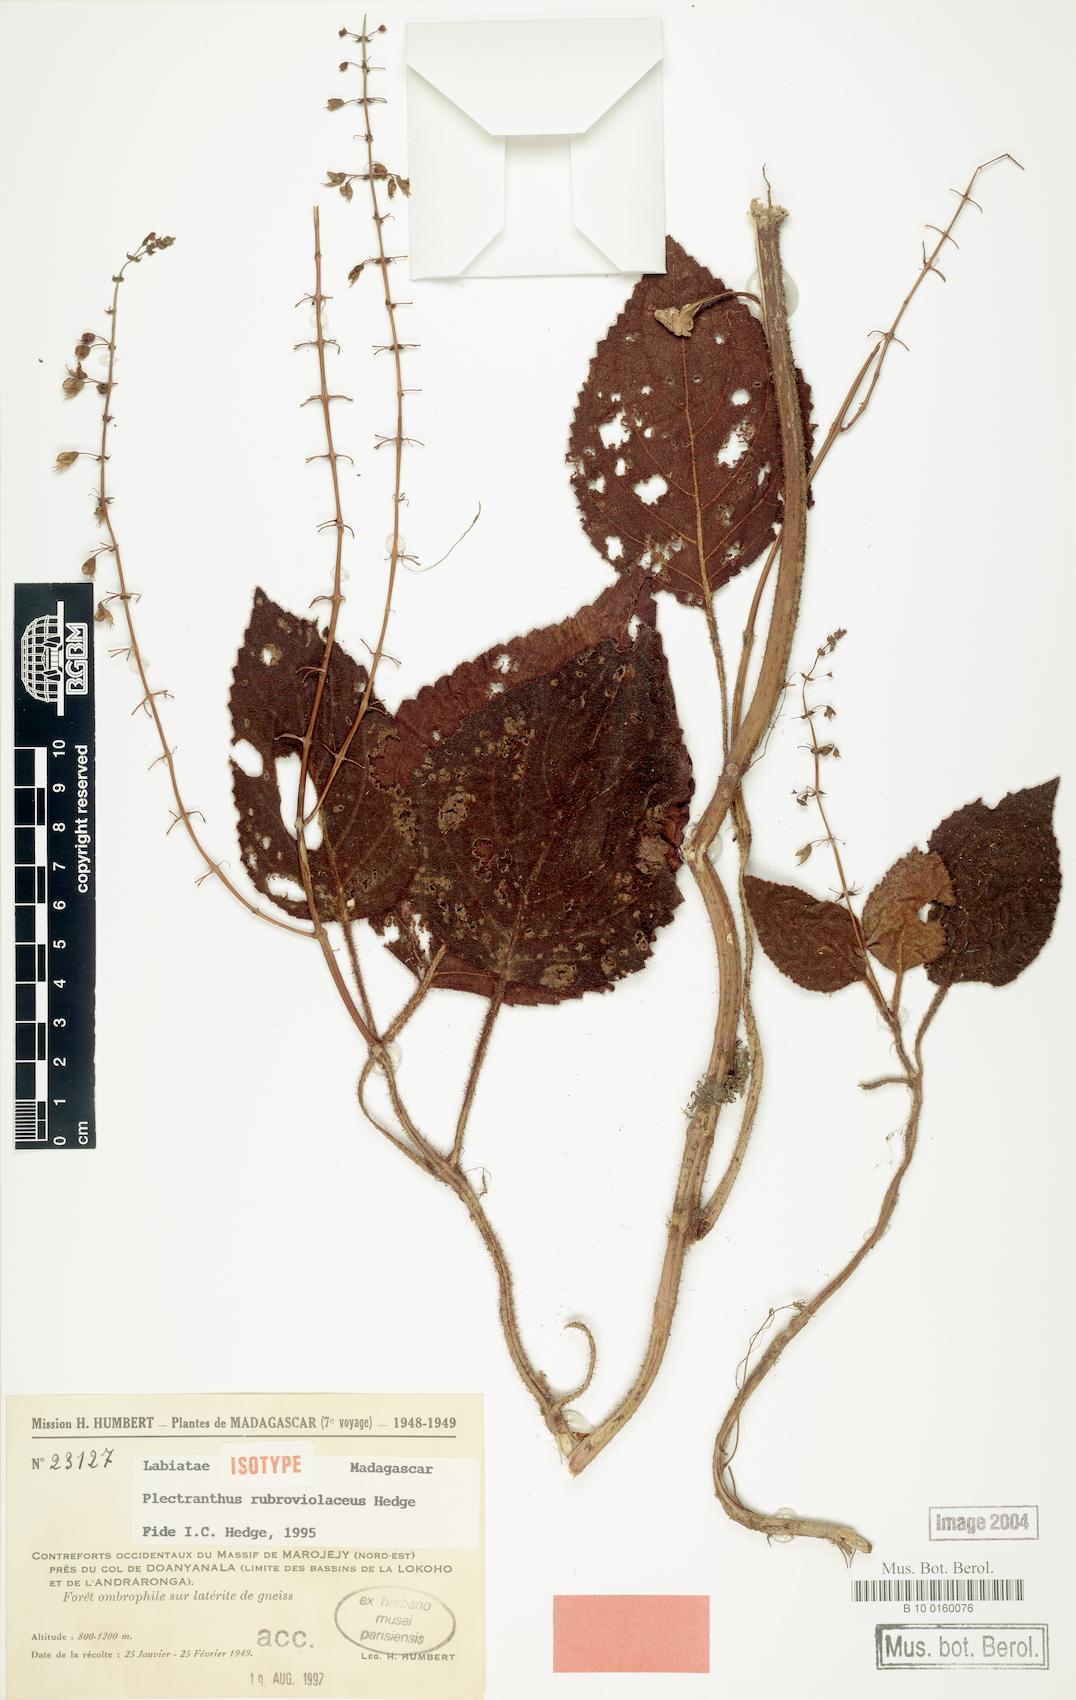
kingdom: Plantae
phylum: Tracheophyta
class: Magnoliopsida
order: Lamiales
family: Lamiaceae
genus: Plectranthus
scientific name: Plectranthus rubroviolaceus
